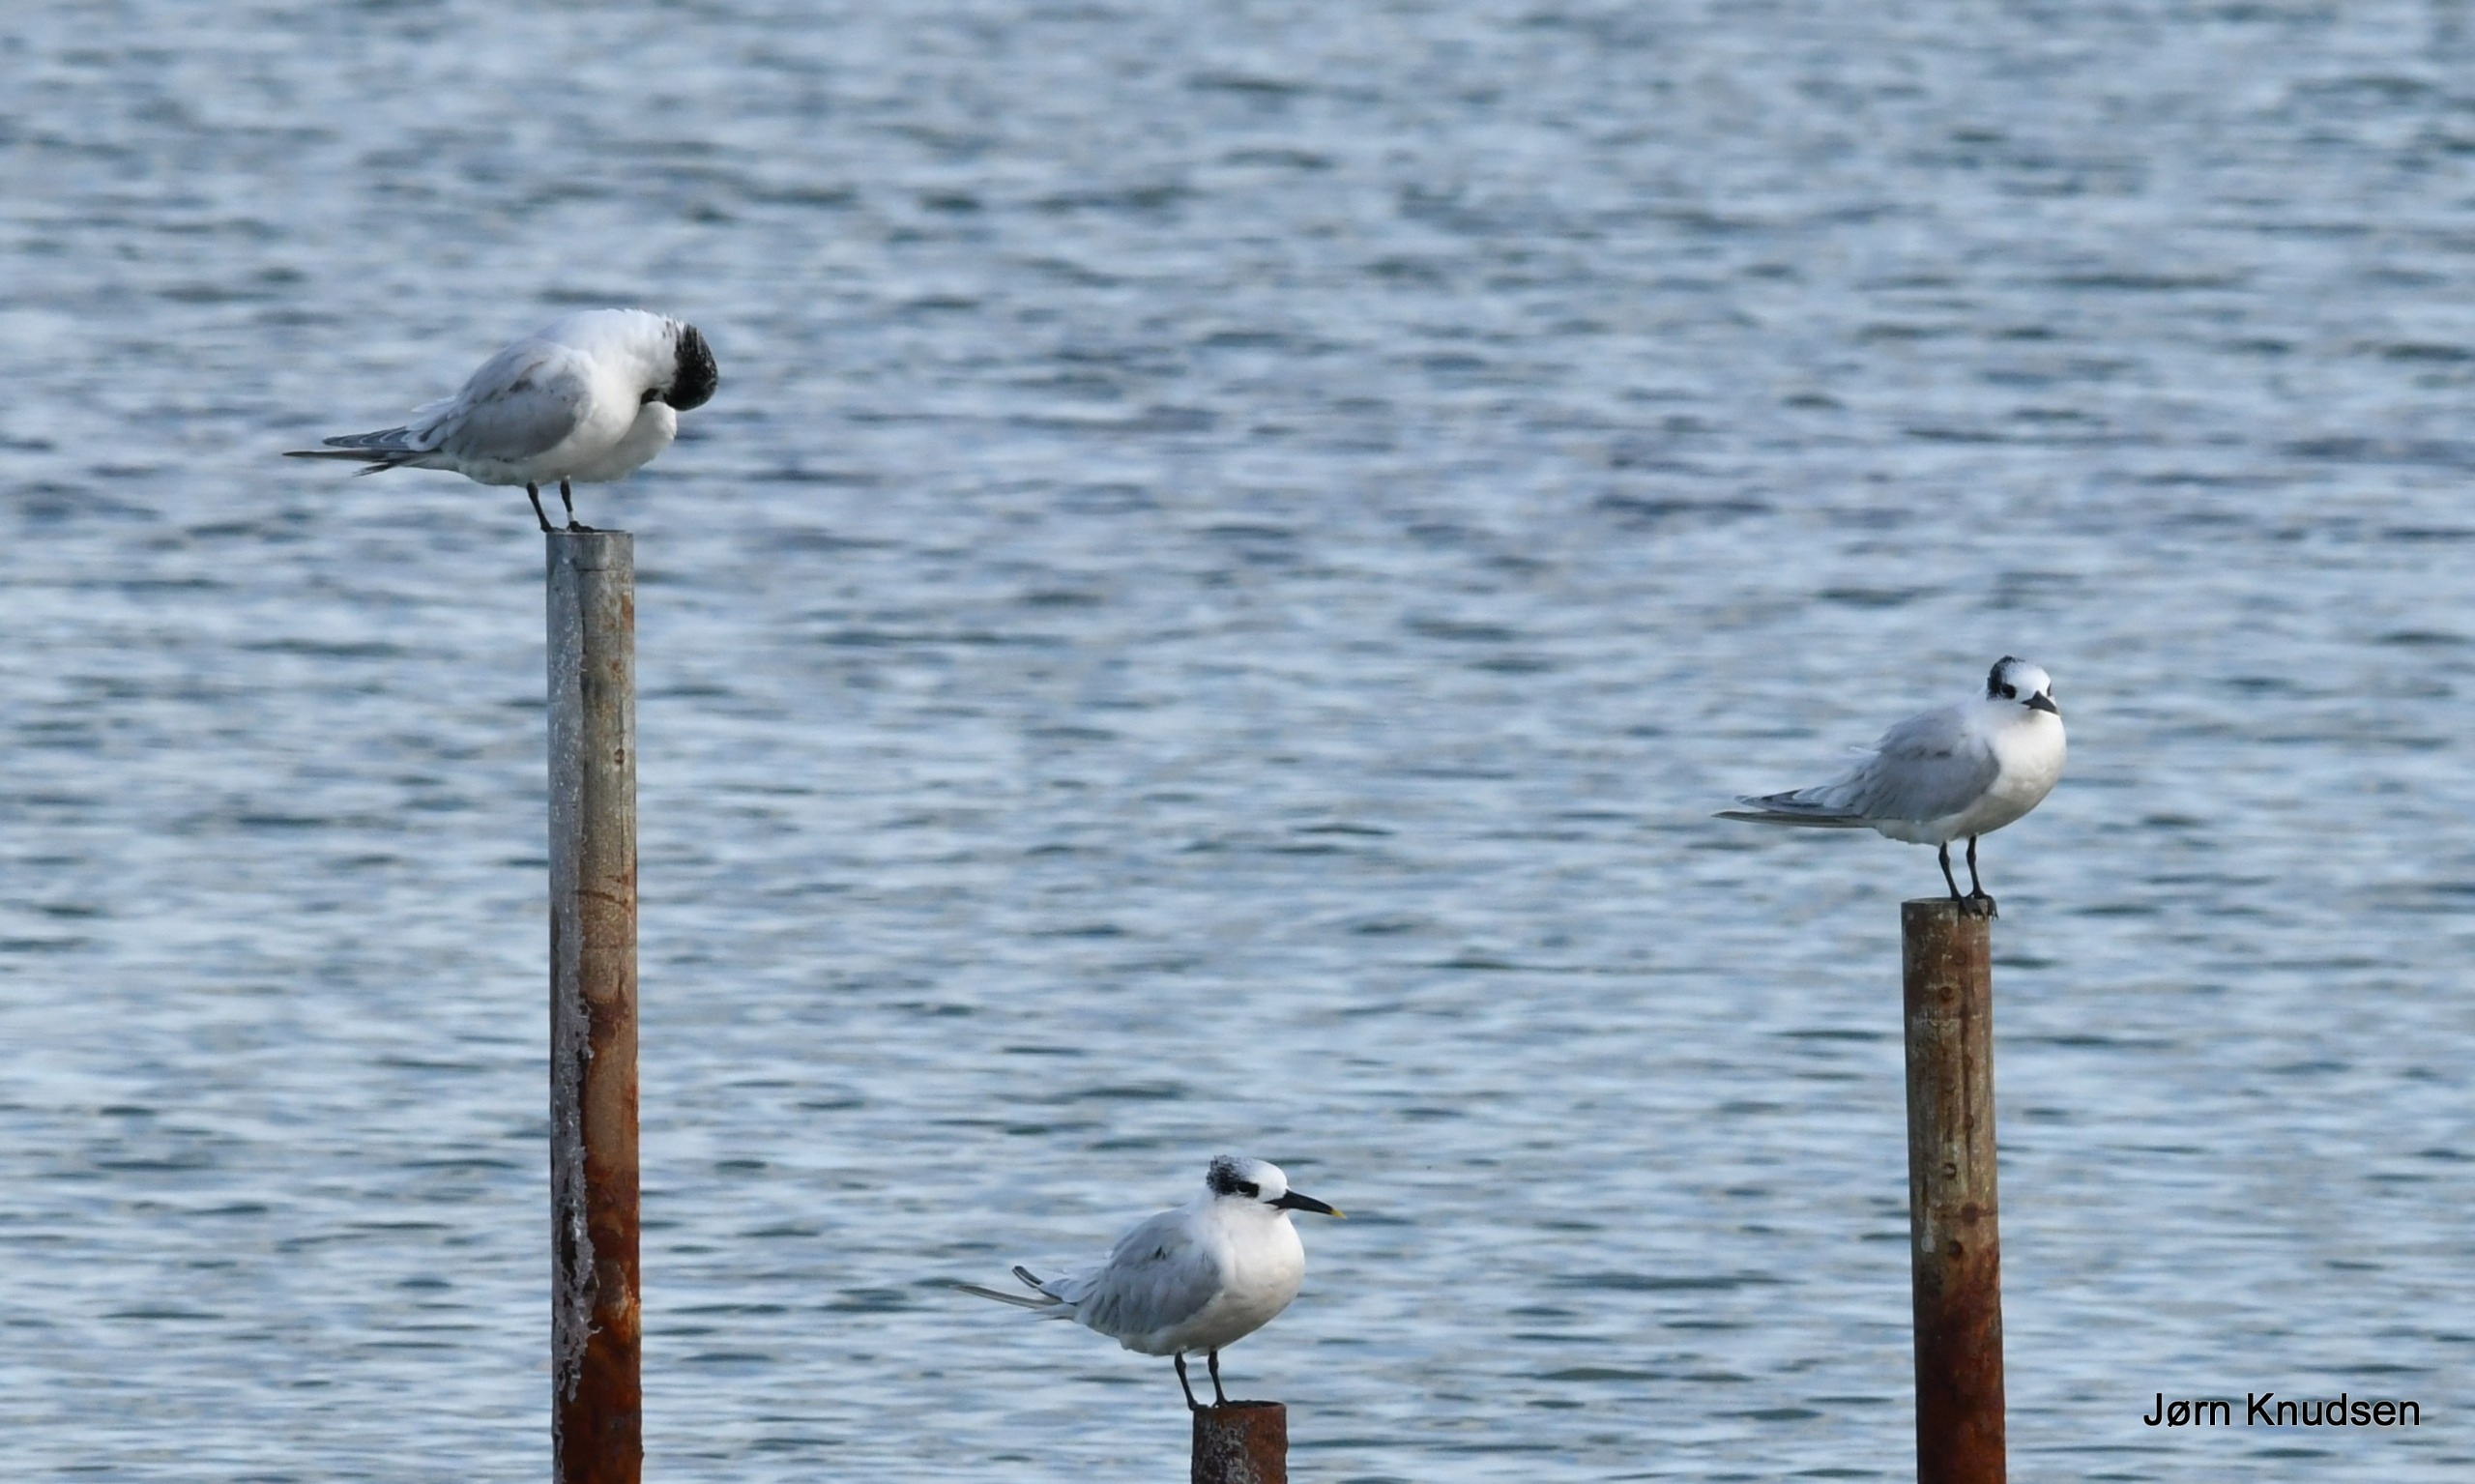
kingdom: Animalia
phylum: Chordata
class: Aves
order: Charadriiformes
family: Laridae
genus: Thalasseus
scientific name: Thalasseus sandvicensis
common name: Splitterne
